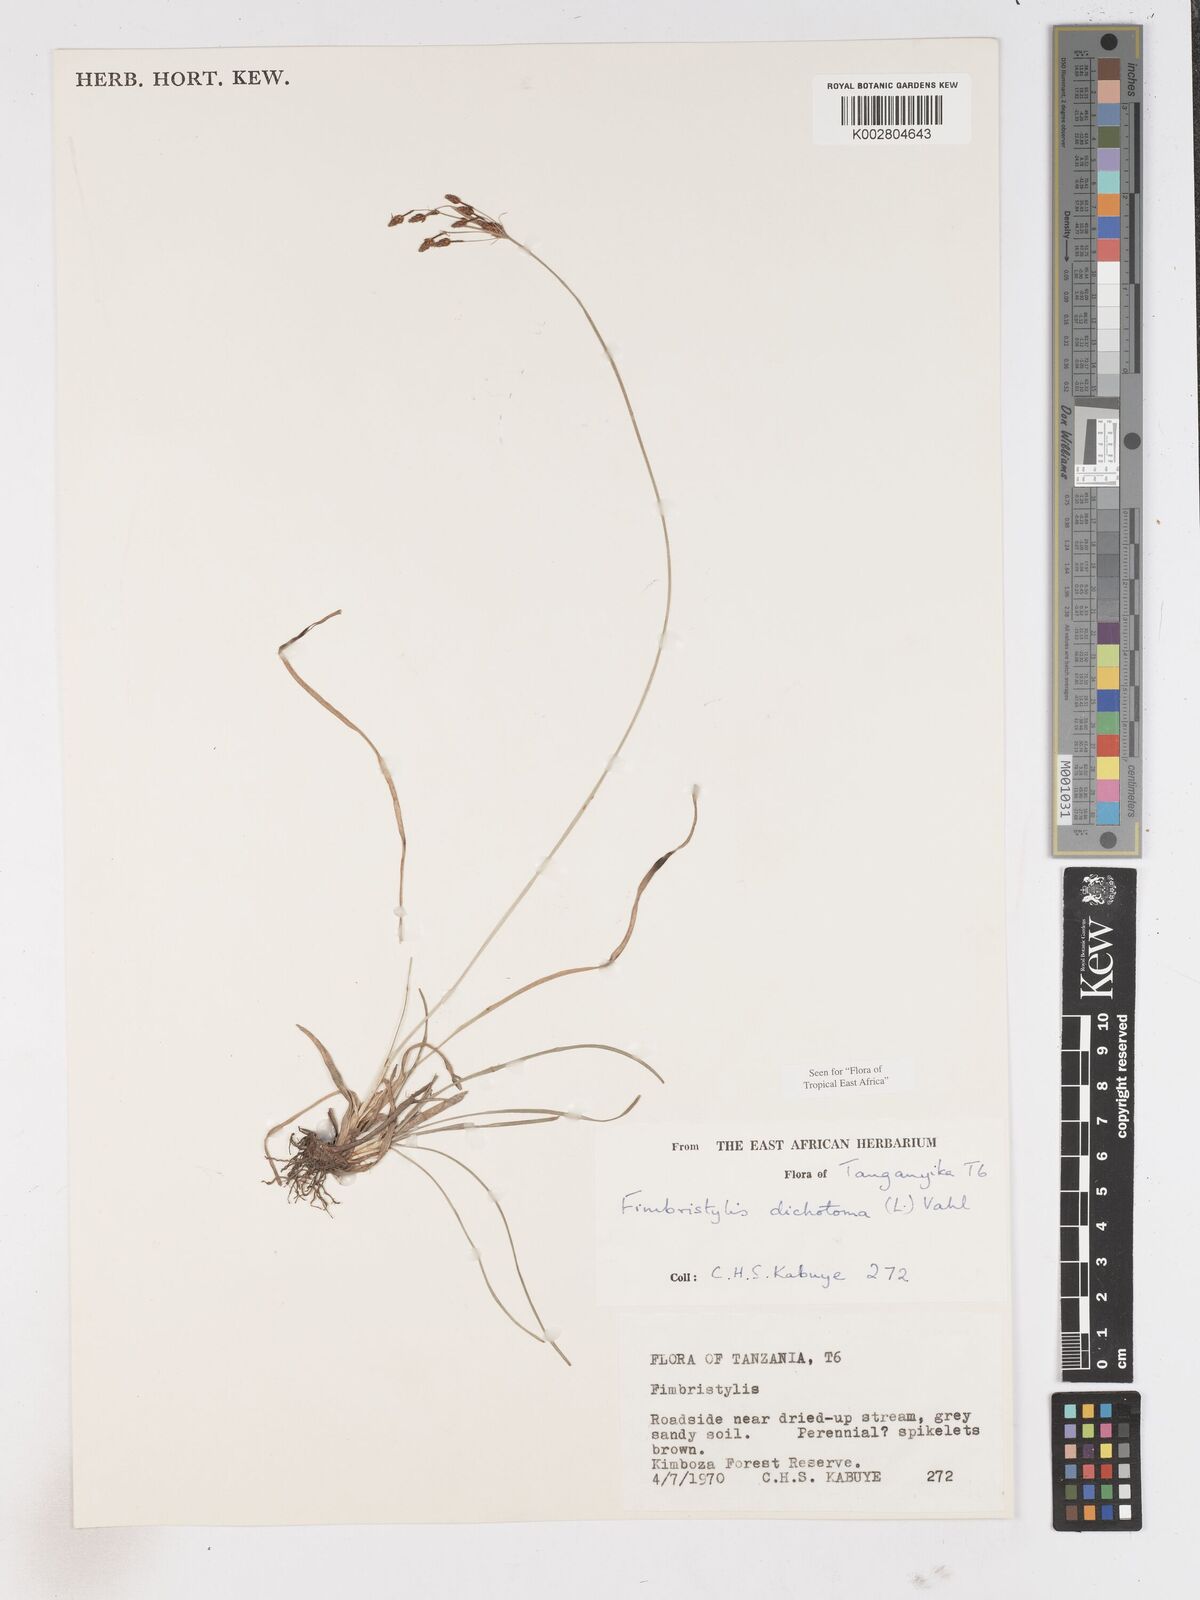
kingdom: Plantae
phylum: Tracheophyta
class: Liliopsida
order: Poales
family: Cyperaceae
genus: Fimbristylis
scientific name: Fimbristylis dichotoma
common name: Forked fimbry
